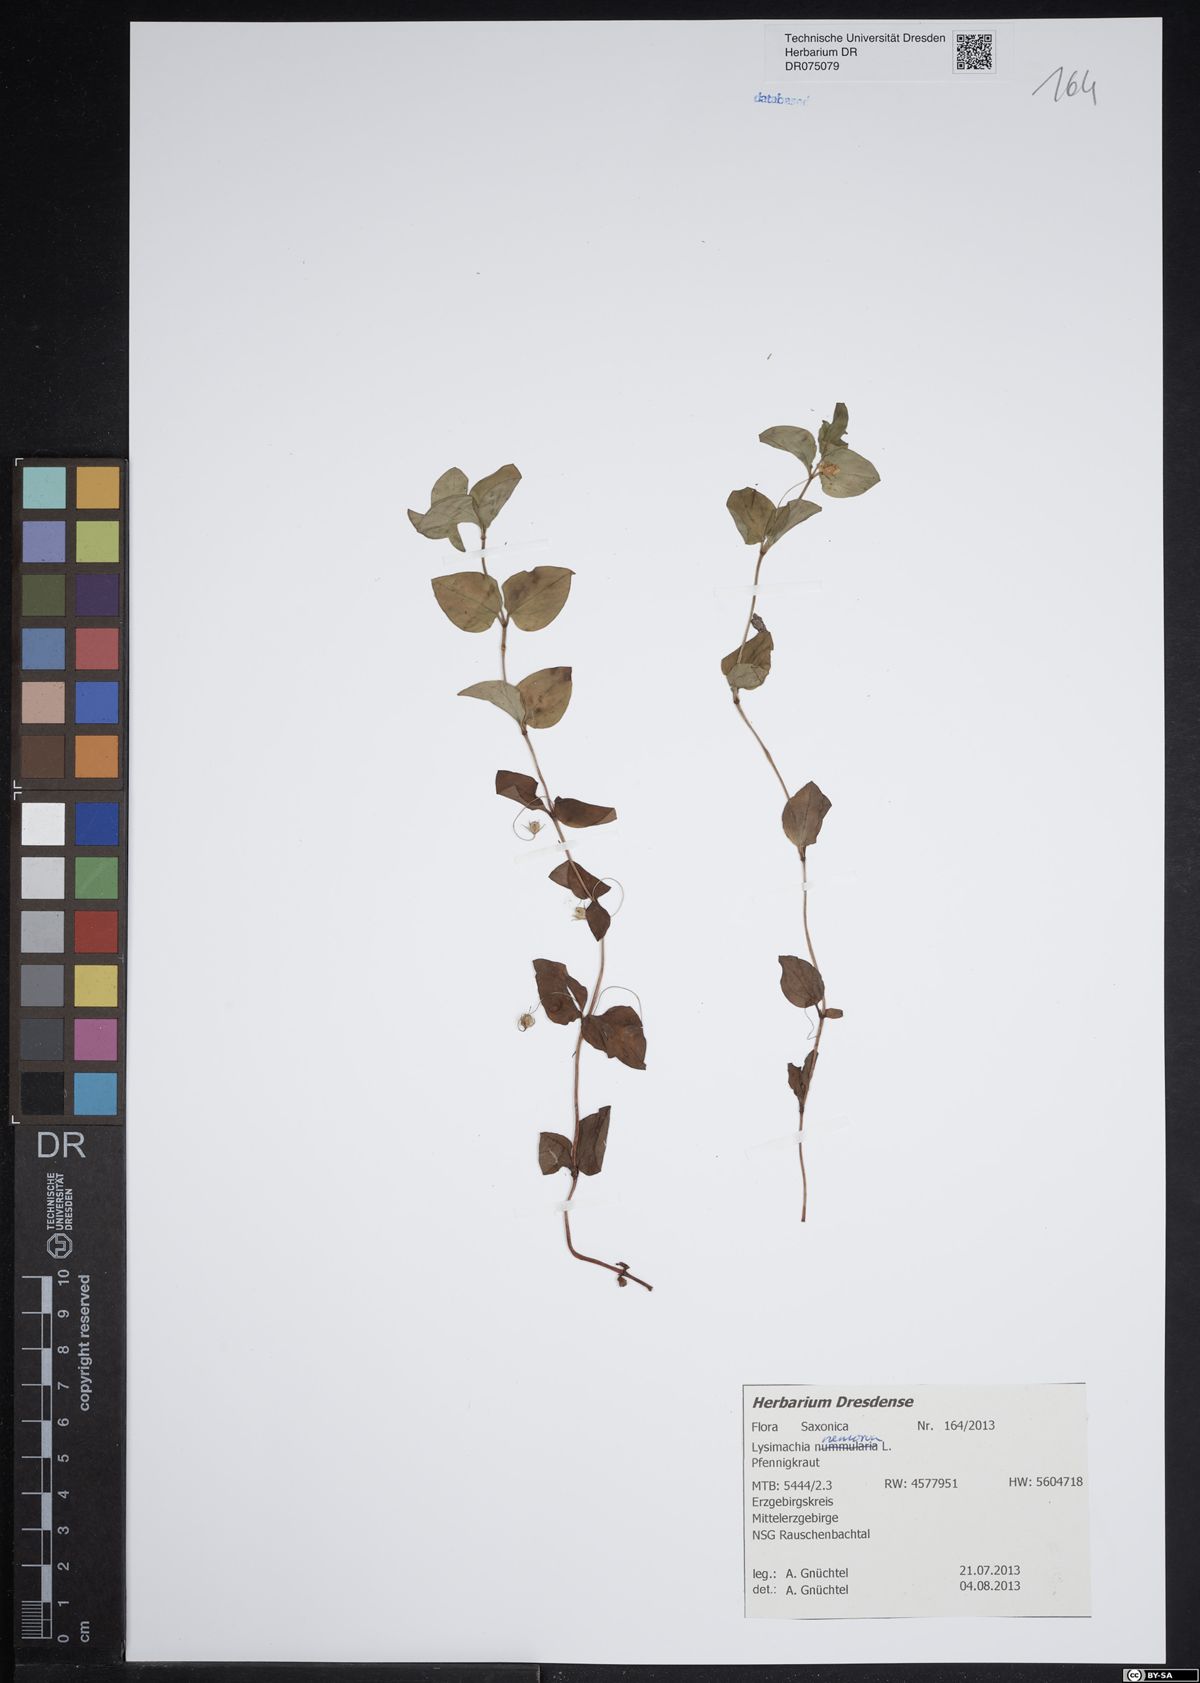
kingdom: Plantae
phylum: Tracheophyta
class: Magnoliopsida
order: Ericales
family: Primulaceae
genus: Lysimachia
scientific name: Lysimachia nemorum
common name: Yellow pimpernel
